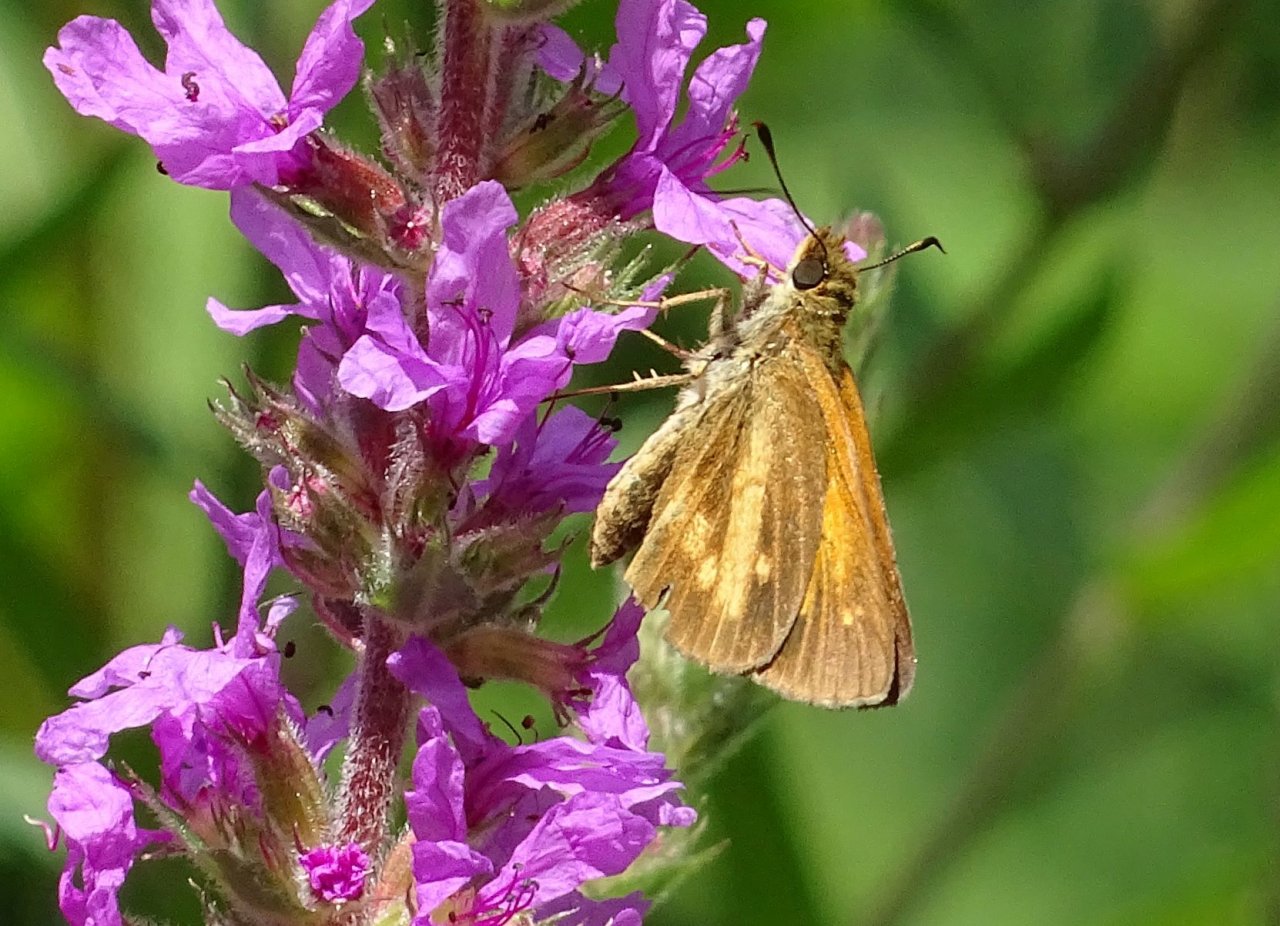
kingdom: Animalia
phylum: Arthropoda
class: Insecta
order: Lepidoptera
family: Hesperiidae
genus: Poanes
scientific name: Poanes viator
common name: Broad-winged Skipper
